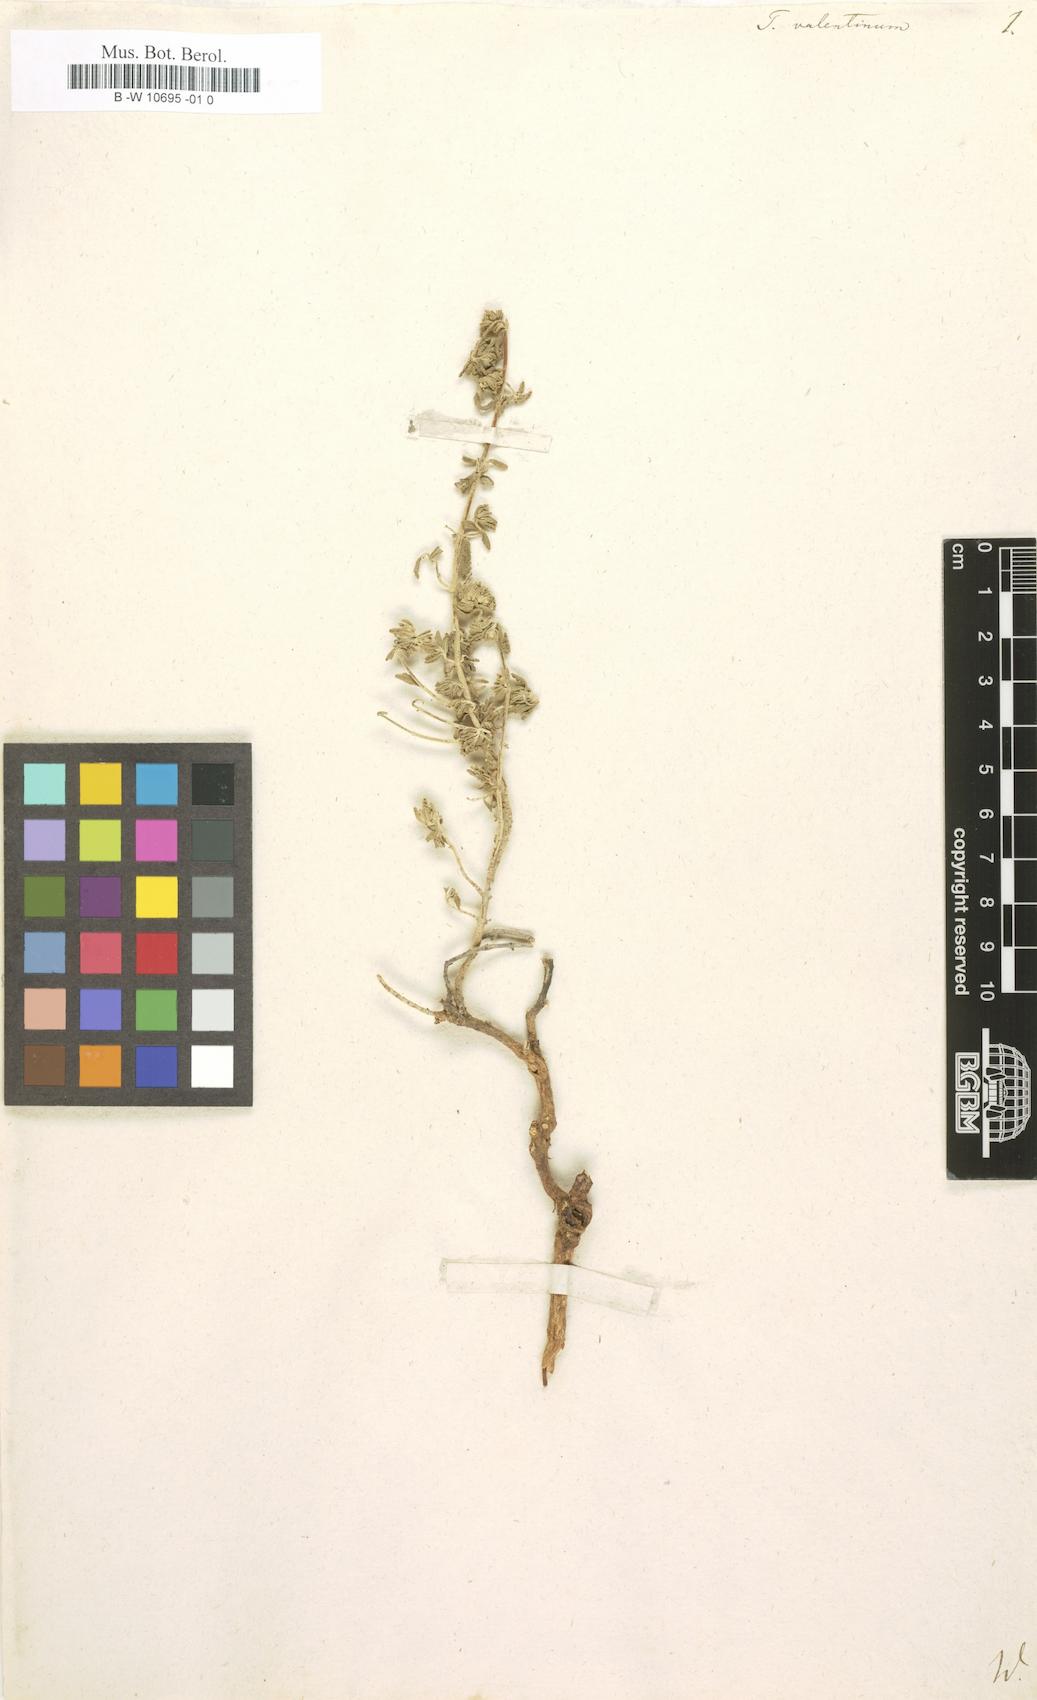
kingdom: Plantae
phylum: Tracheophyta
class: Magnoliopsida
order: Lamiales
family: Lamiaceae
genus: Teucrium
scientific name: Teucrium capitatum
